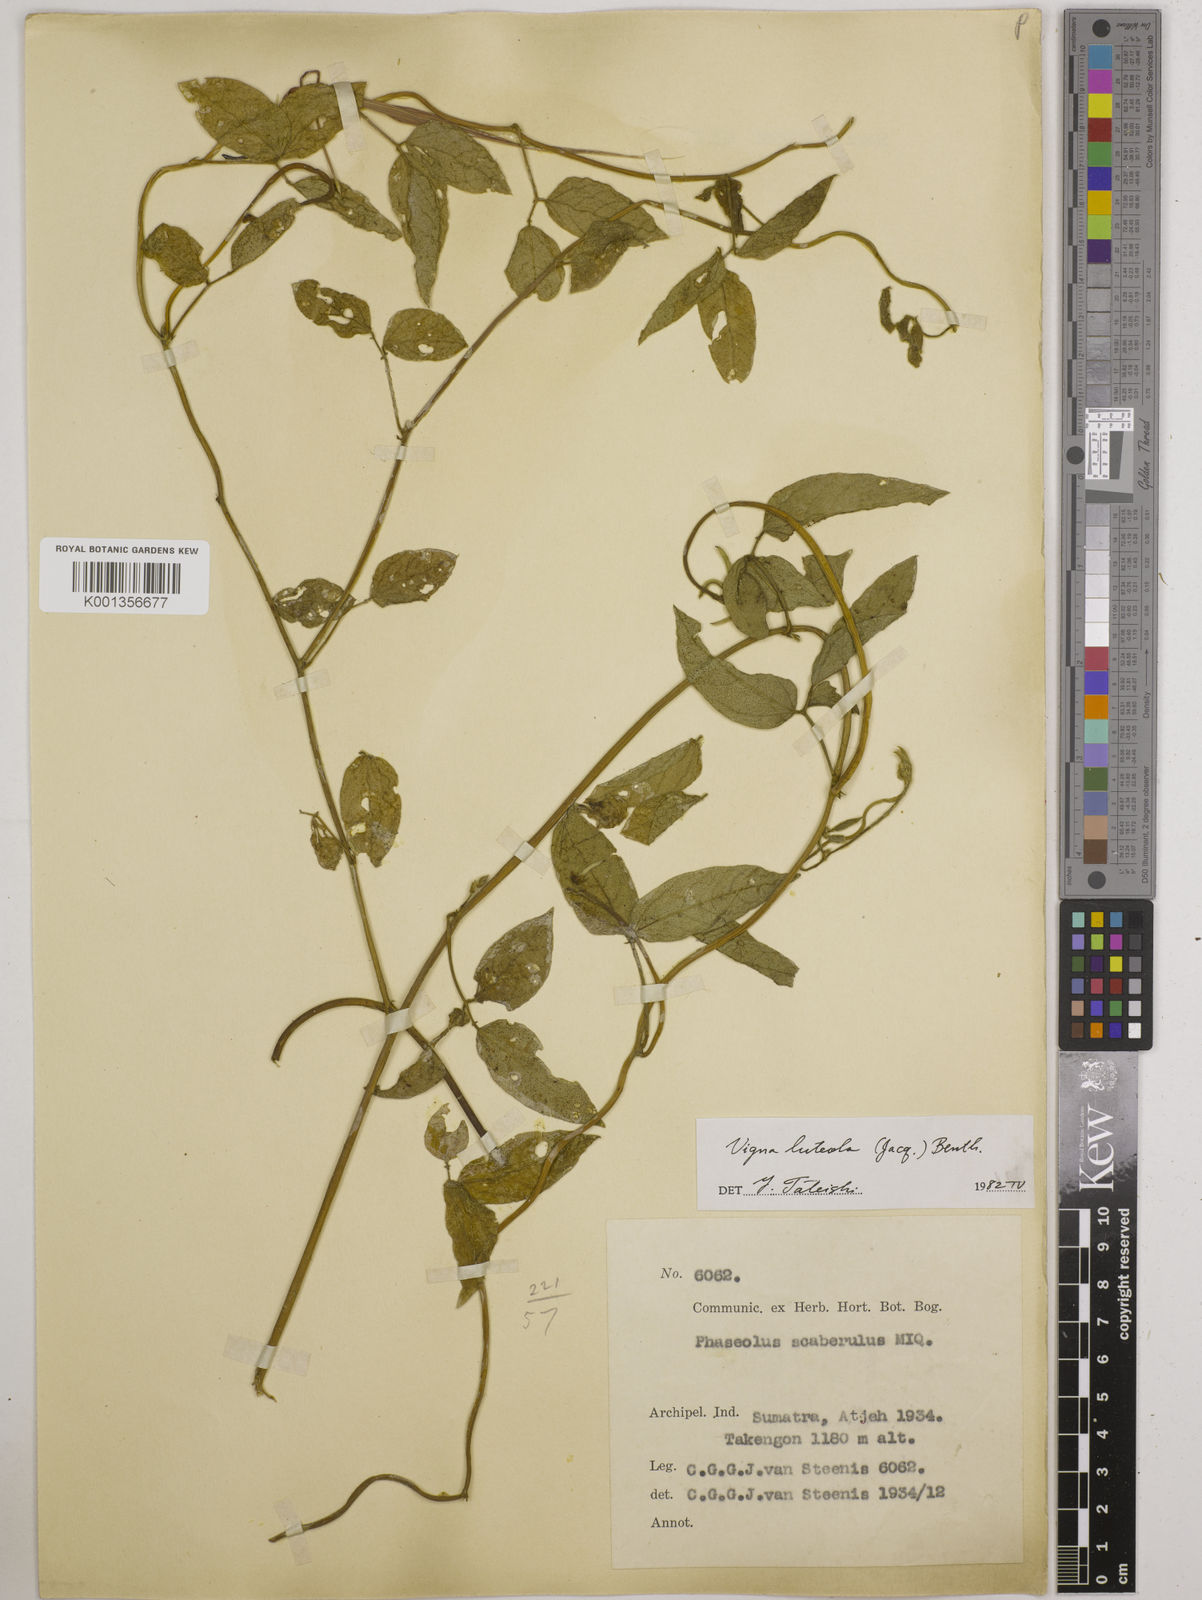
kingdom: Plantae
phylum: Tracheophyta
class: Magnoliopsida
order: Fabales
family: Fabaceae
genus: Vigna
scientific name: Vigna luteola
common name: Hairypod cowpea
